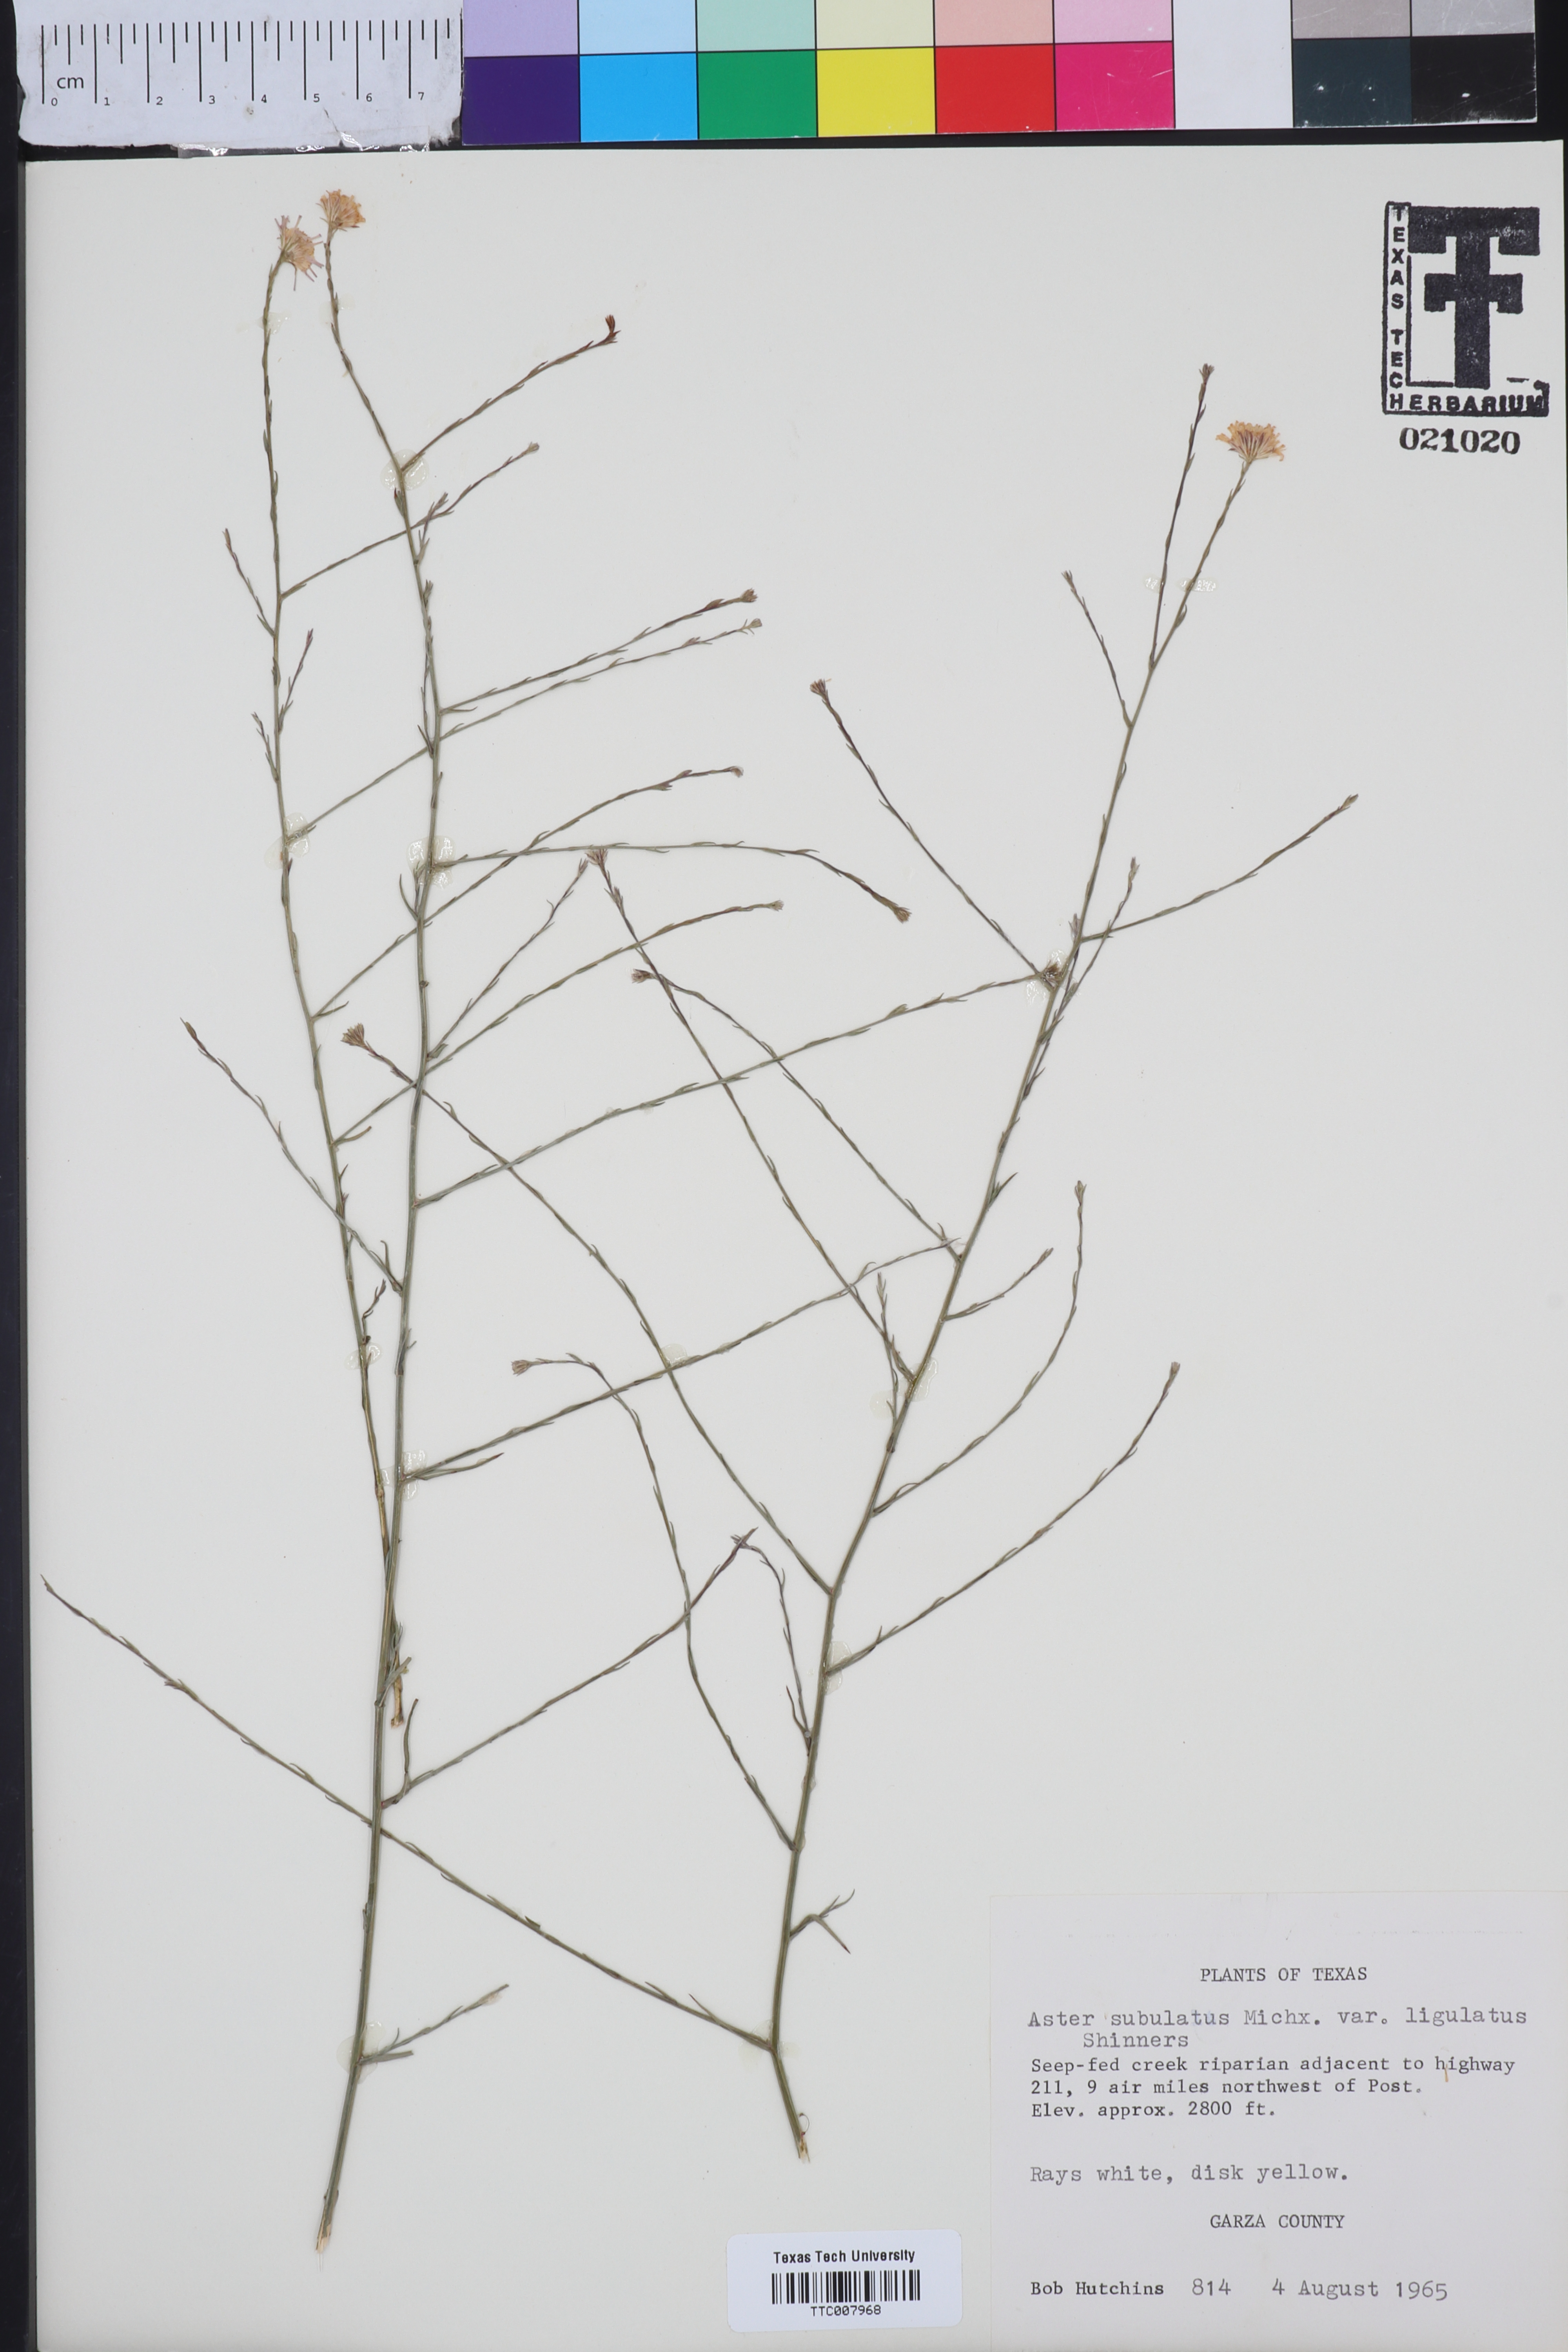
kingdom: Plantae
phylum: Tracheophyta
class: Magnoliopsida
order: Asterales
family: Asteraceae
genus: Symphyotrichum
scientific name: Symphyotrichum divaricatum
